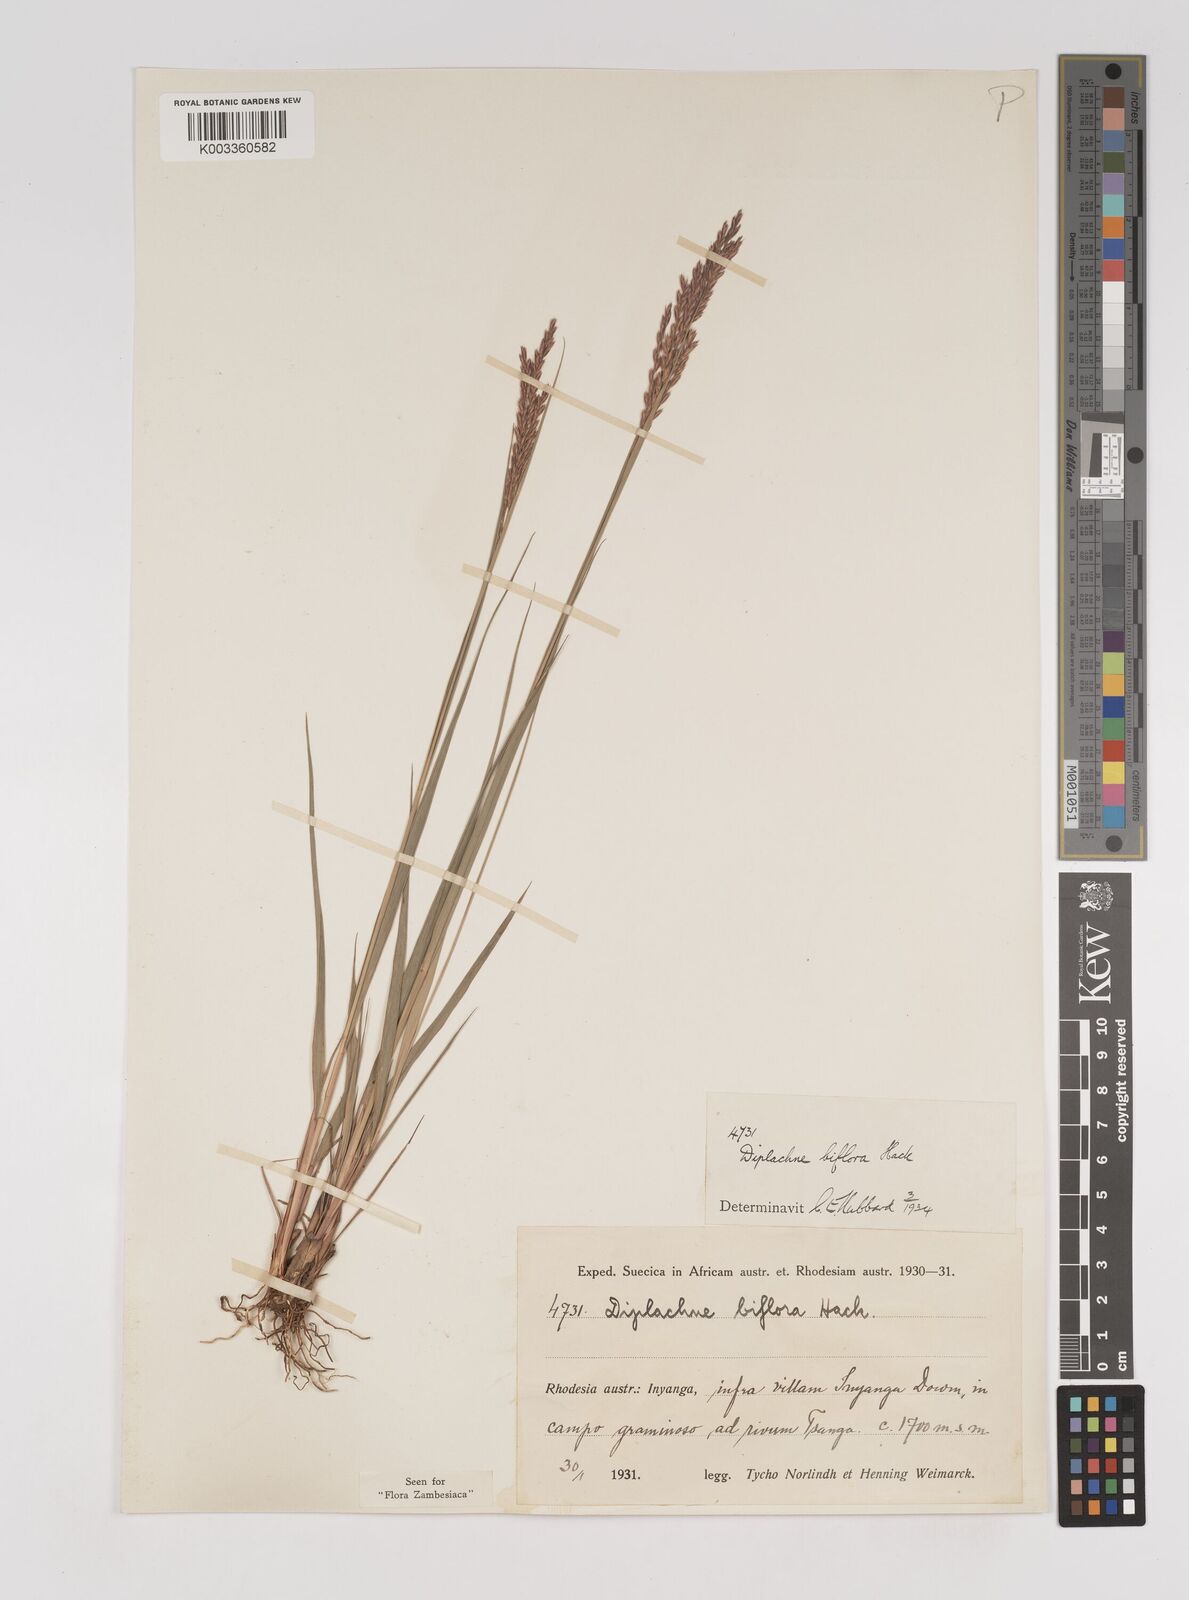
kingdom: Plantae
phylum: Tracheophyta
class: Liliopsida
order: Poales
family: Poaceae
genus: Bewsia
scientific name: Bewsia biflora
